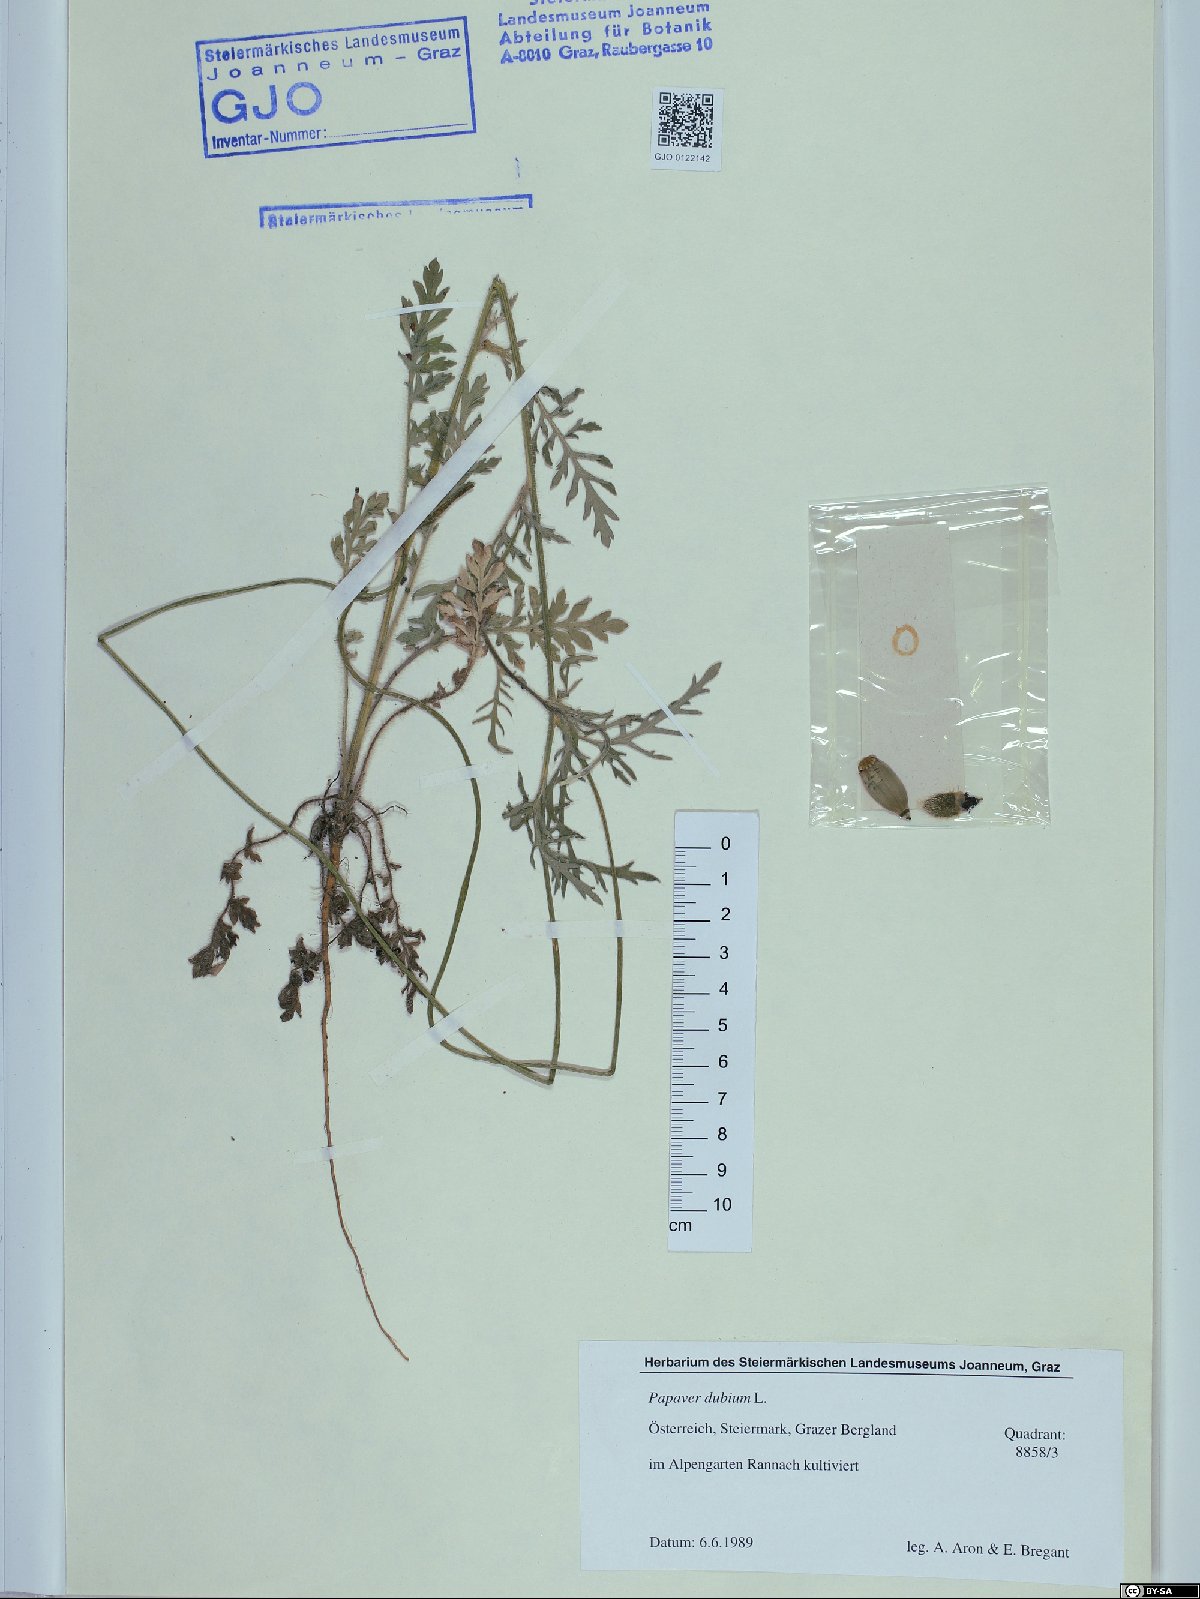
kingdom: Plantae
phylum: Tracheophyta
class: Magnoliopsida
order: Ranunculales
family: Papaveraceae
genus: Papaver
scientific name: Papaver dubium
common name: Long-headed poppy
